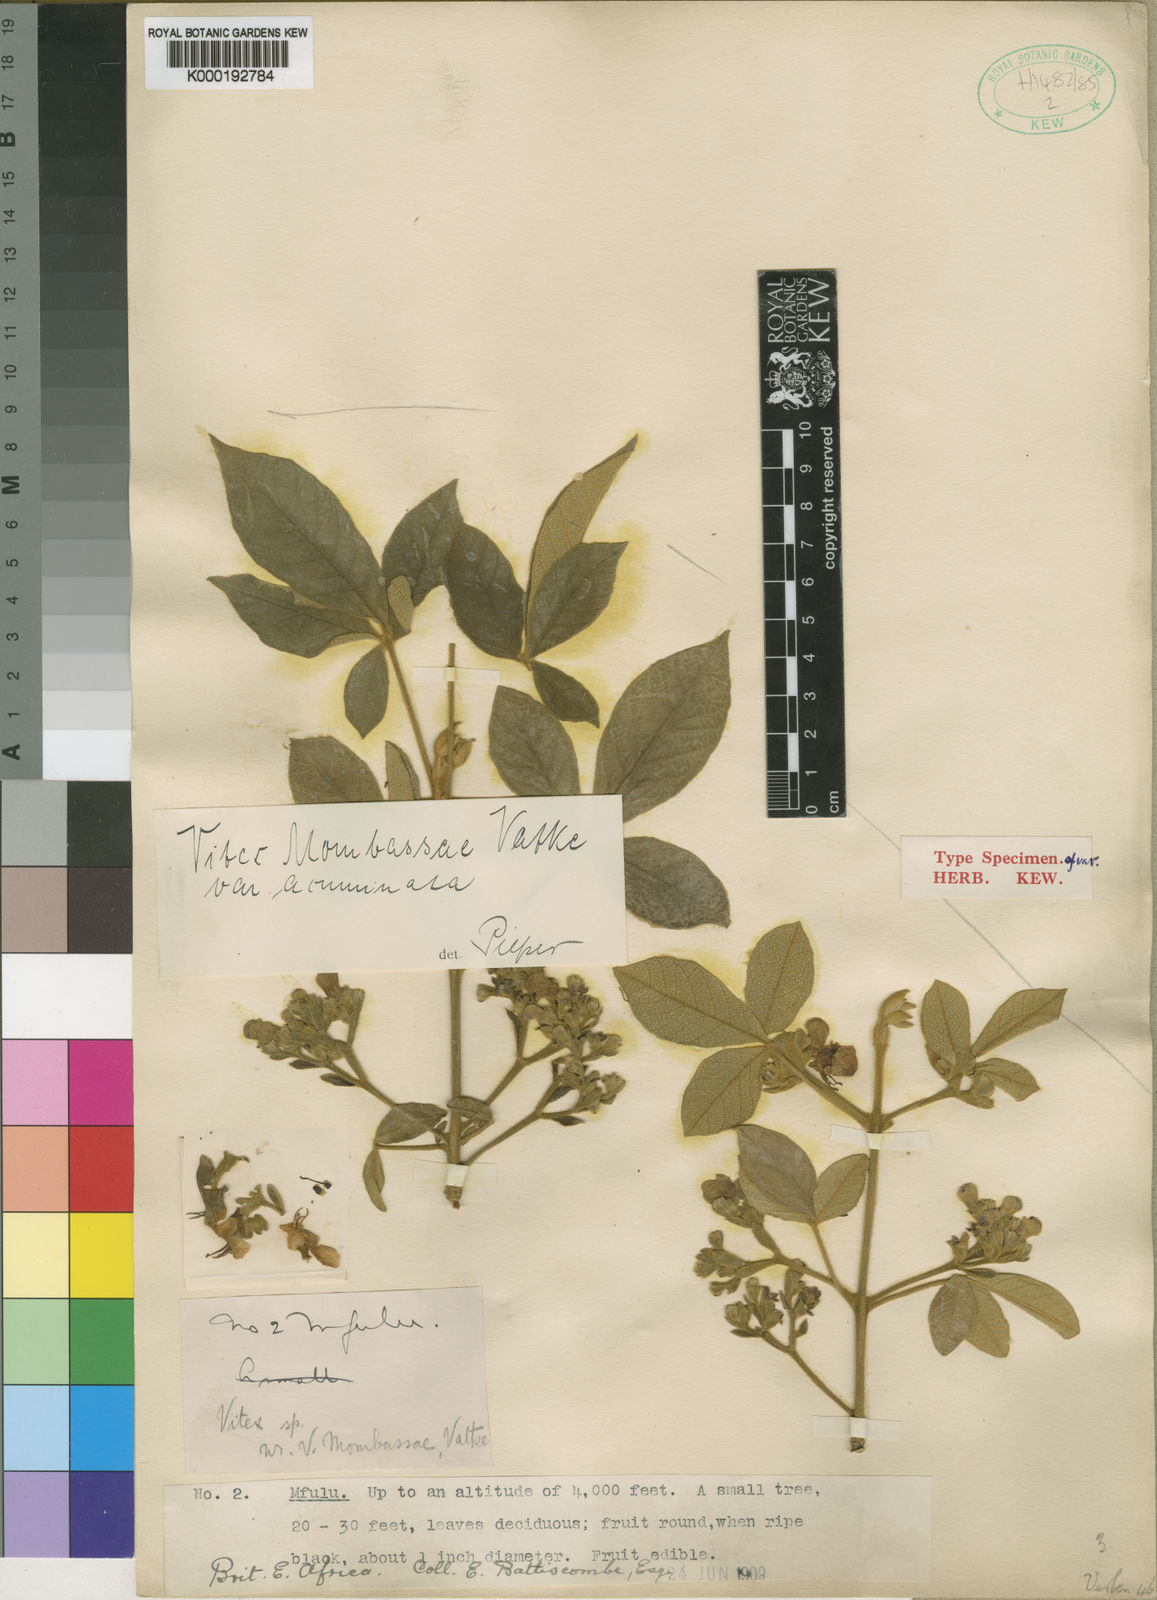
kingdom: Plantae
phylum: Tracheophyta
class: Magnoliopsida
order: Lamiales
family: Lamiaceae
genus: Vitex
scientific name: Vitex mombassae
